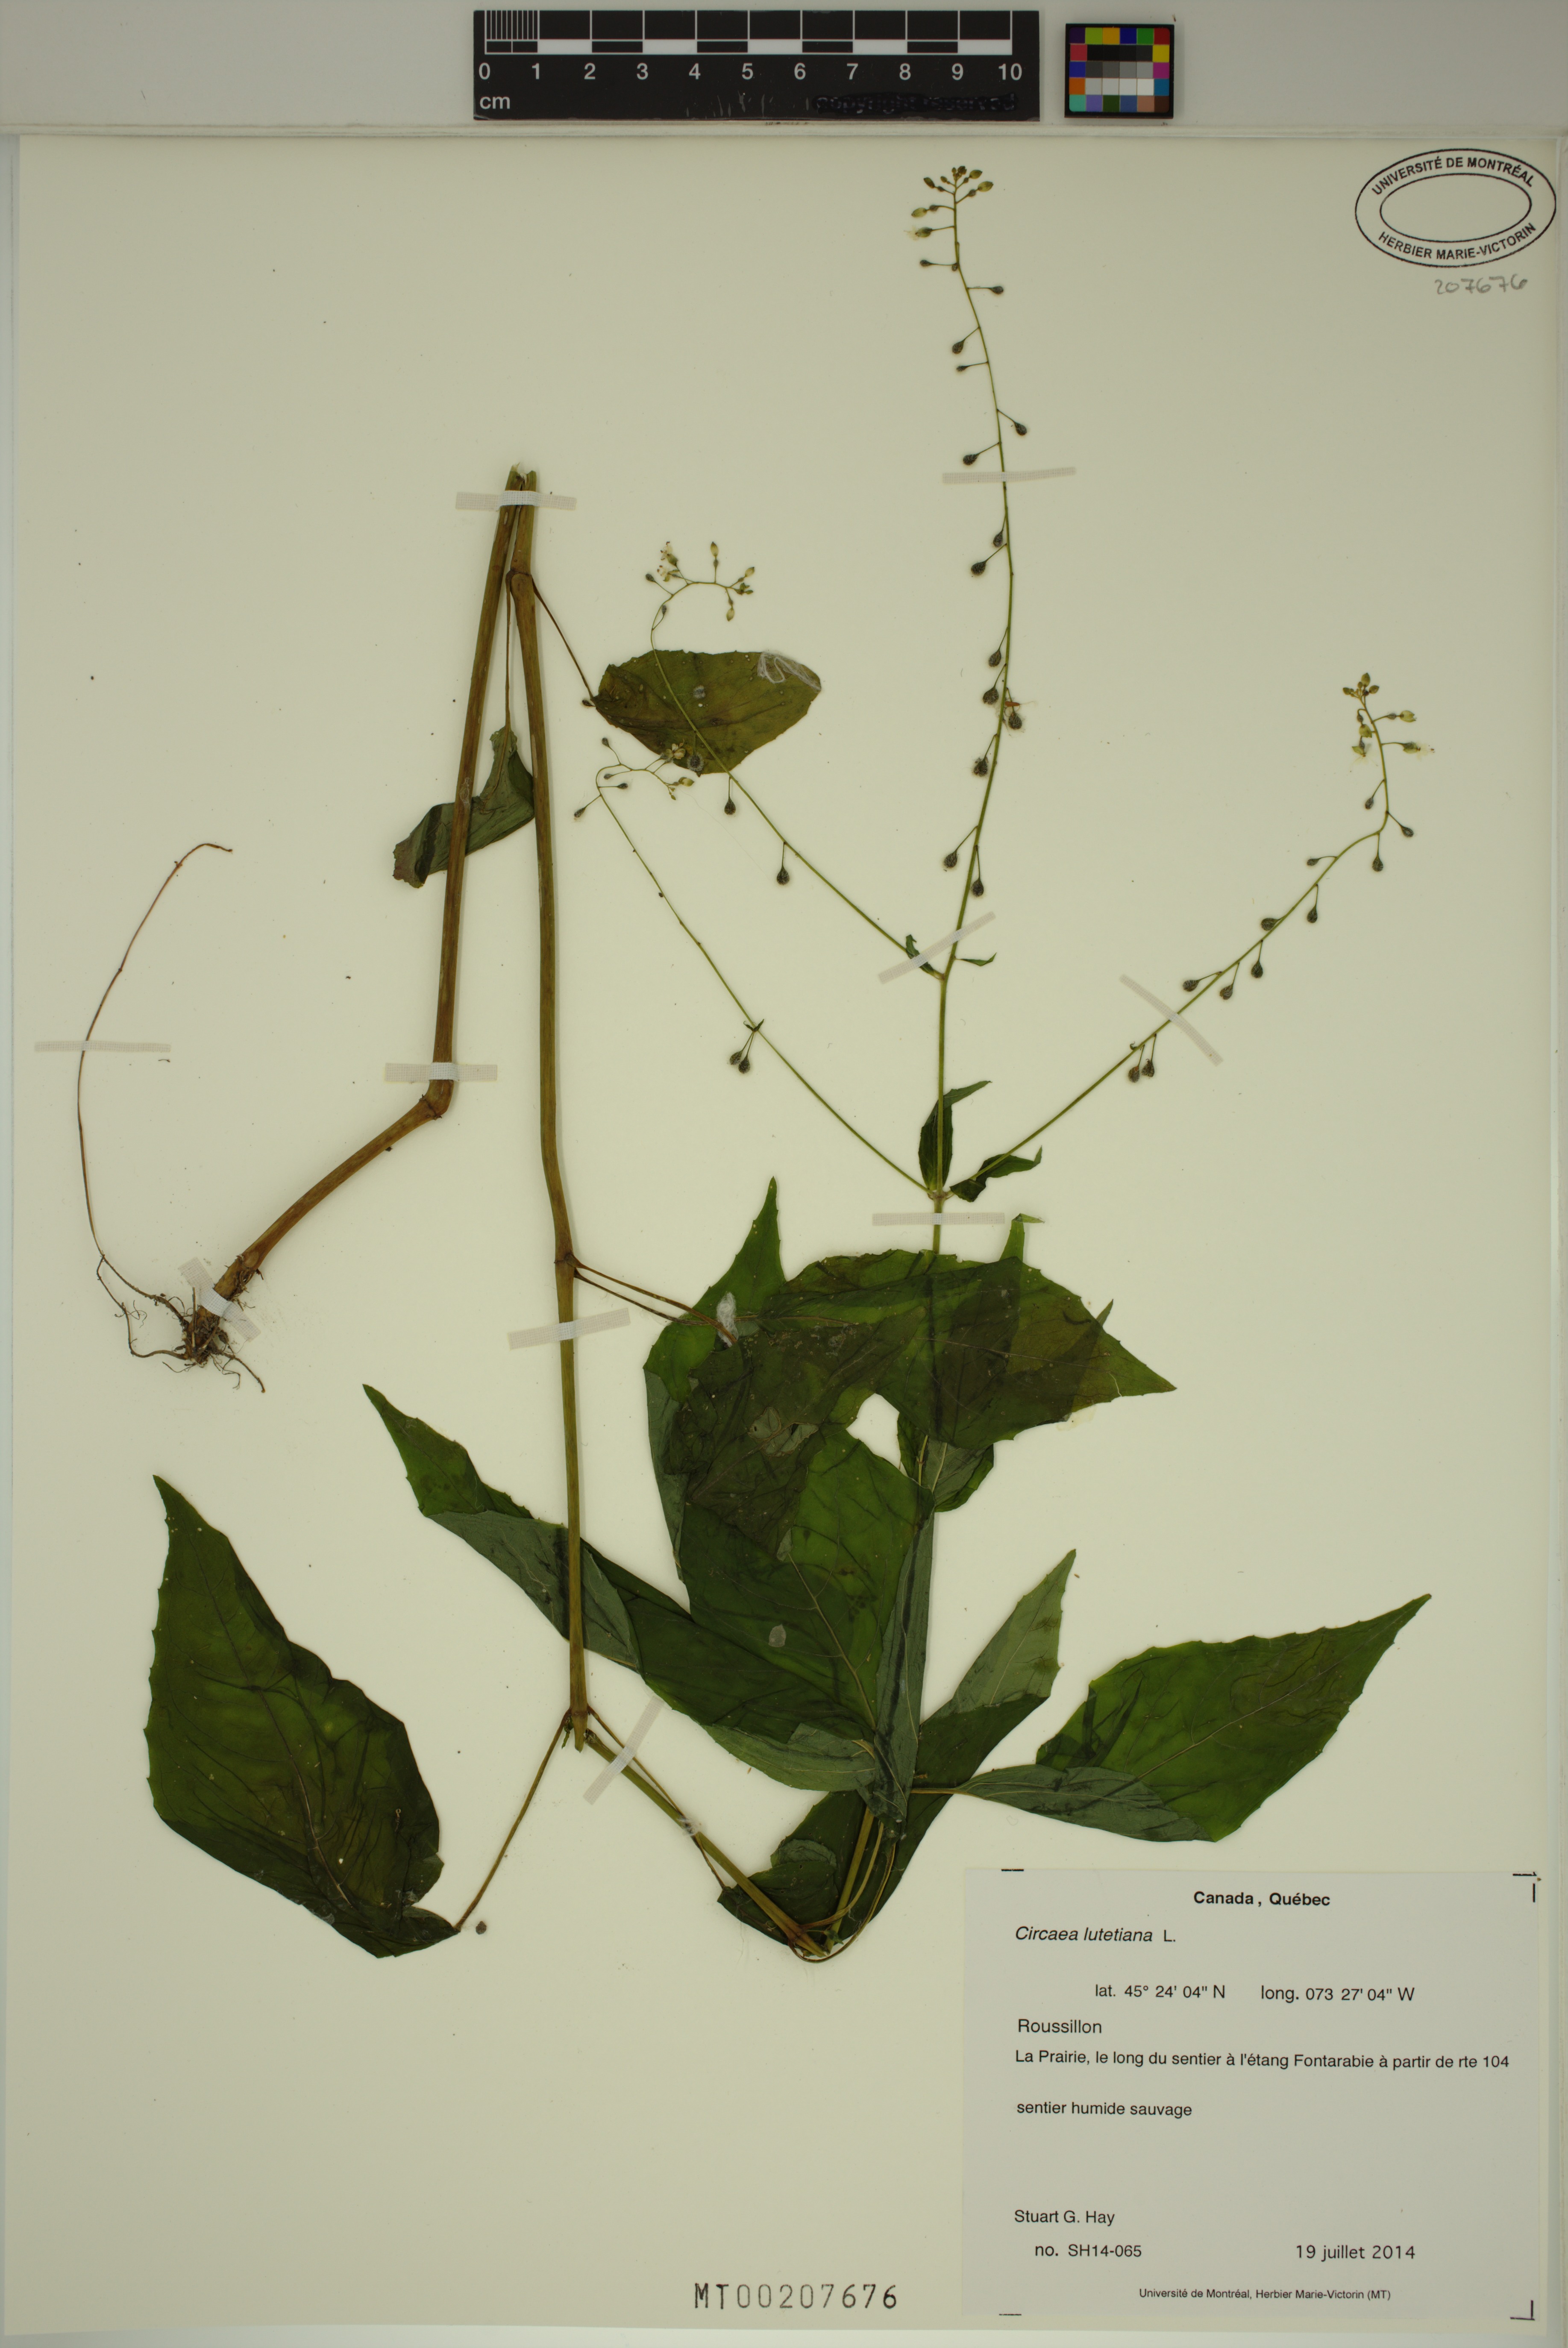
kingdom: Plantae
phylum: Tracheophyta
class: Magnoliopsida
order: Myrtales
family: Onagraceae
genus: Circaea
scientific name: Circaea lutetiana
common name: Enchanter's-nightshade
